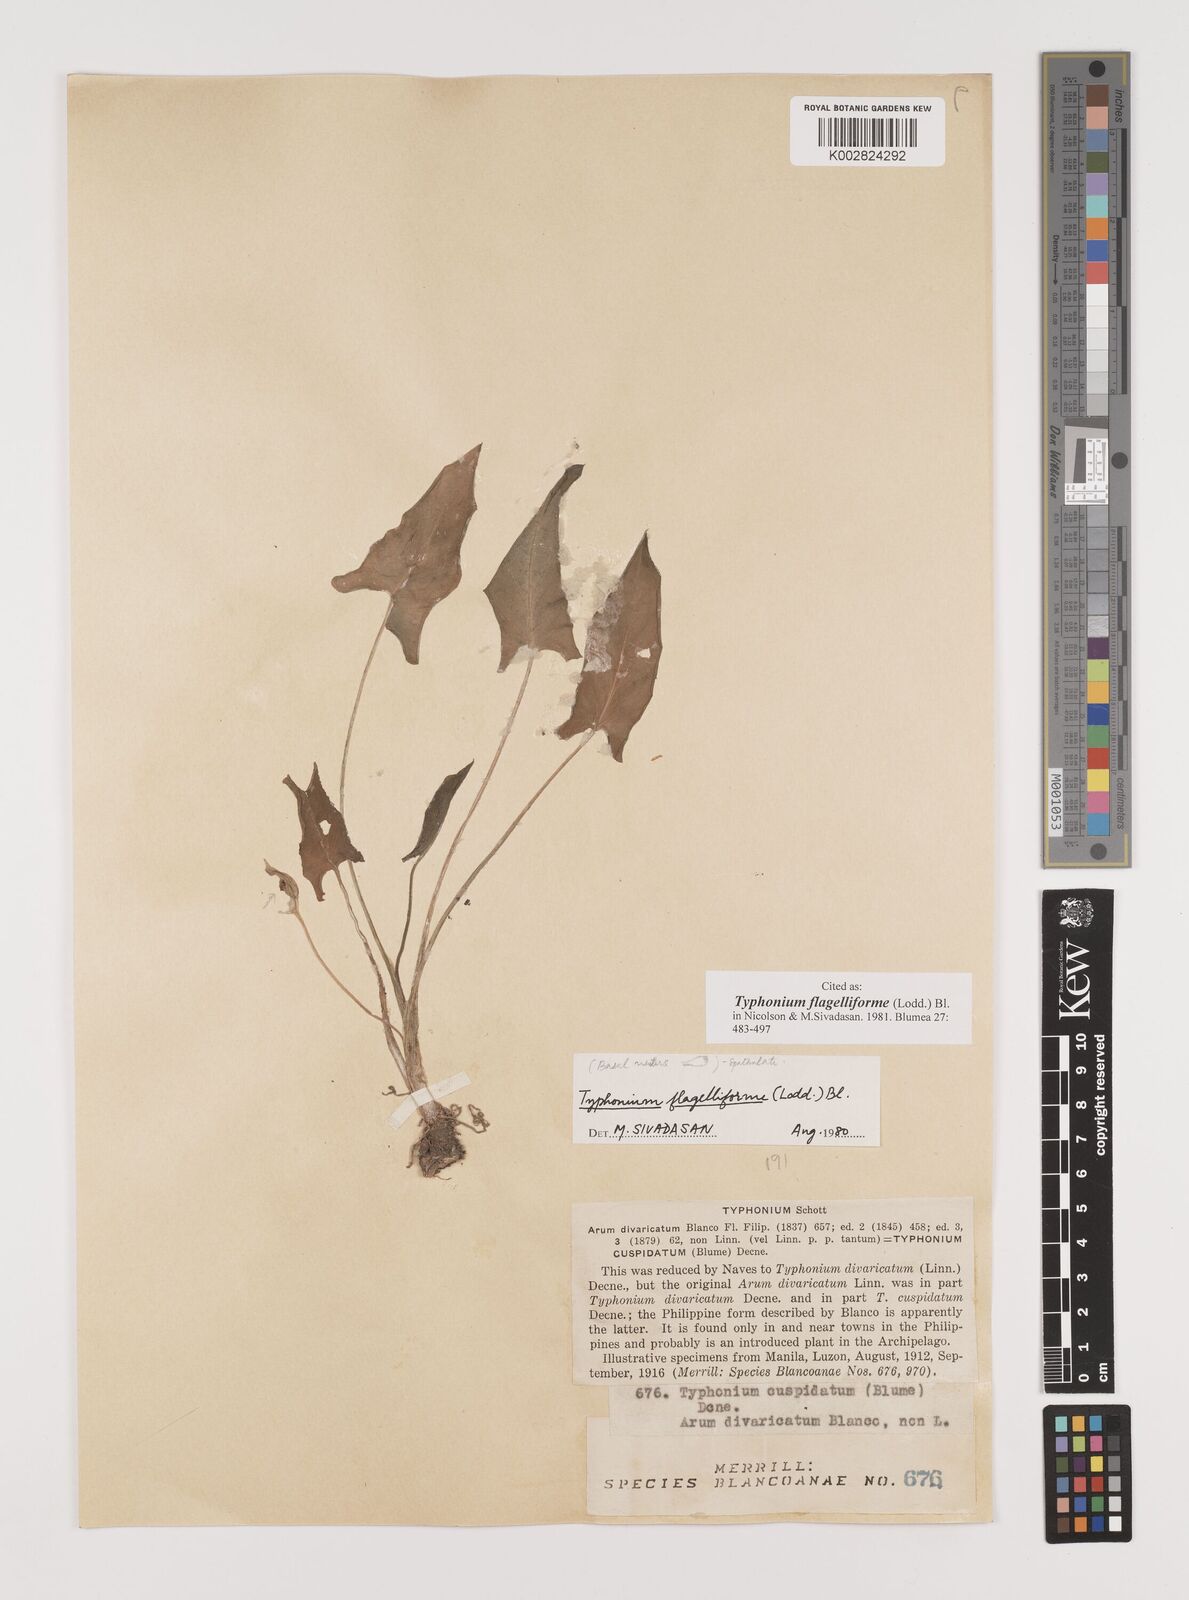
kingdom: Plantae
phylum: Tracheophyta
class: Liliopsida
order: Alismatales
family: Araceae
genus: Typhonium
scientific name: Typhonium flagelliforme
